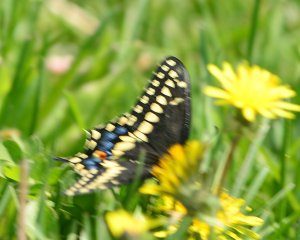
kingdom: Animalia
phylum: Arthropoda
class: Insecta
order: Lepidoptera
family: Papilionidae
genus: Papilio
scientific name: Papilio polyxenes
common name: Black Swallowtail
